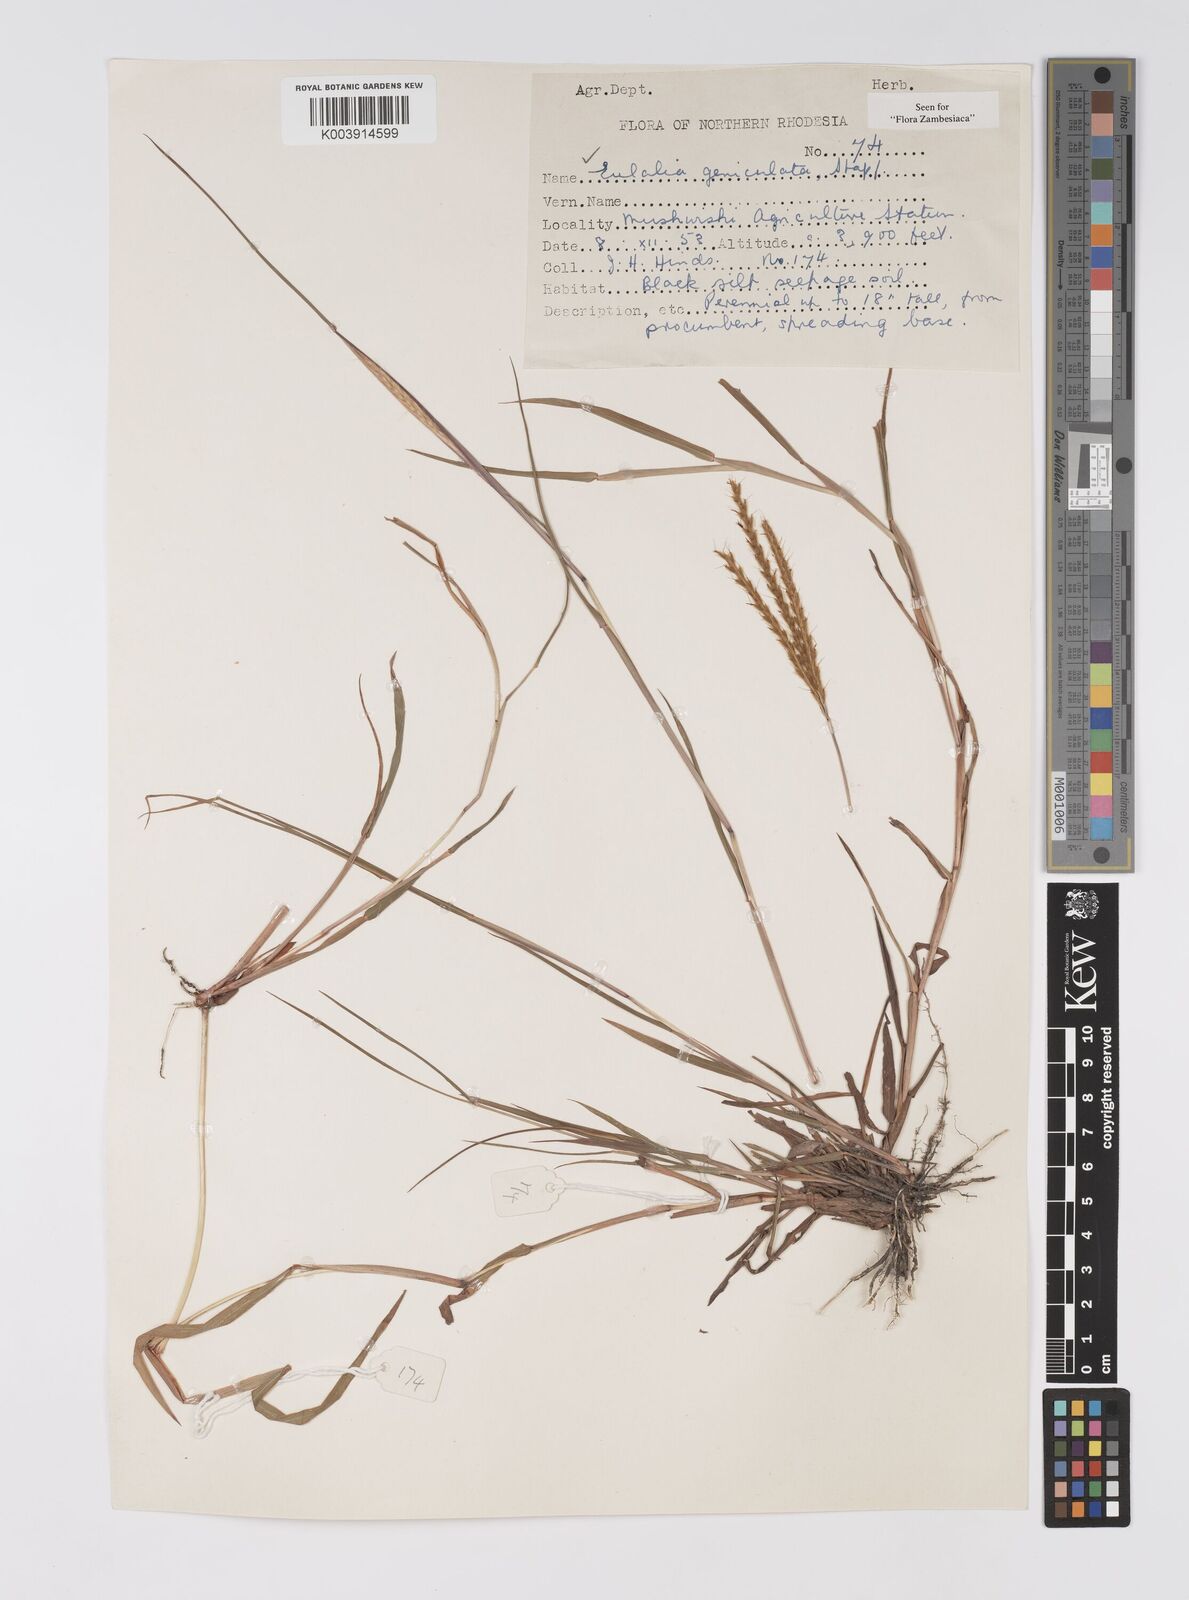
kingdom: Plantae
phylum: Tracheophyta
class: Liliopsida
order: Poales
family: Poaceae
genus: Eulalia
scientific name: Eulalia aurea
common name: Silky browntop
